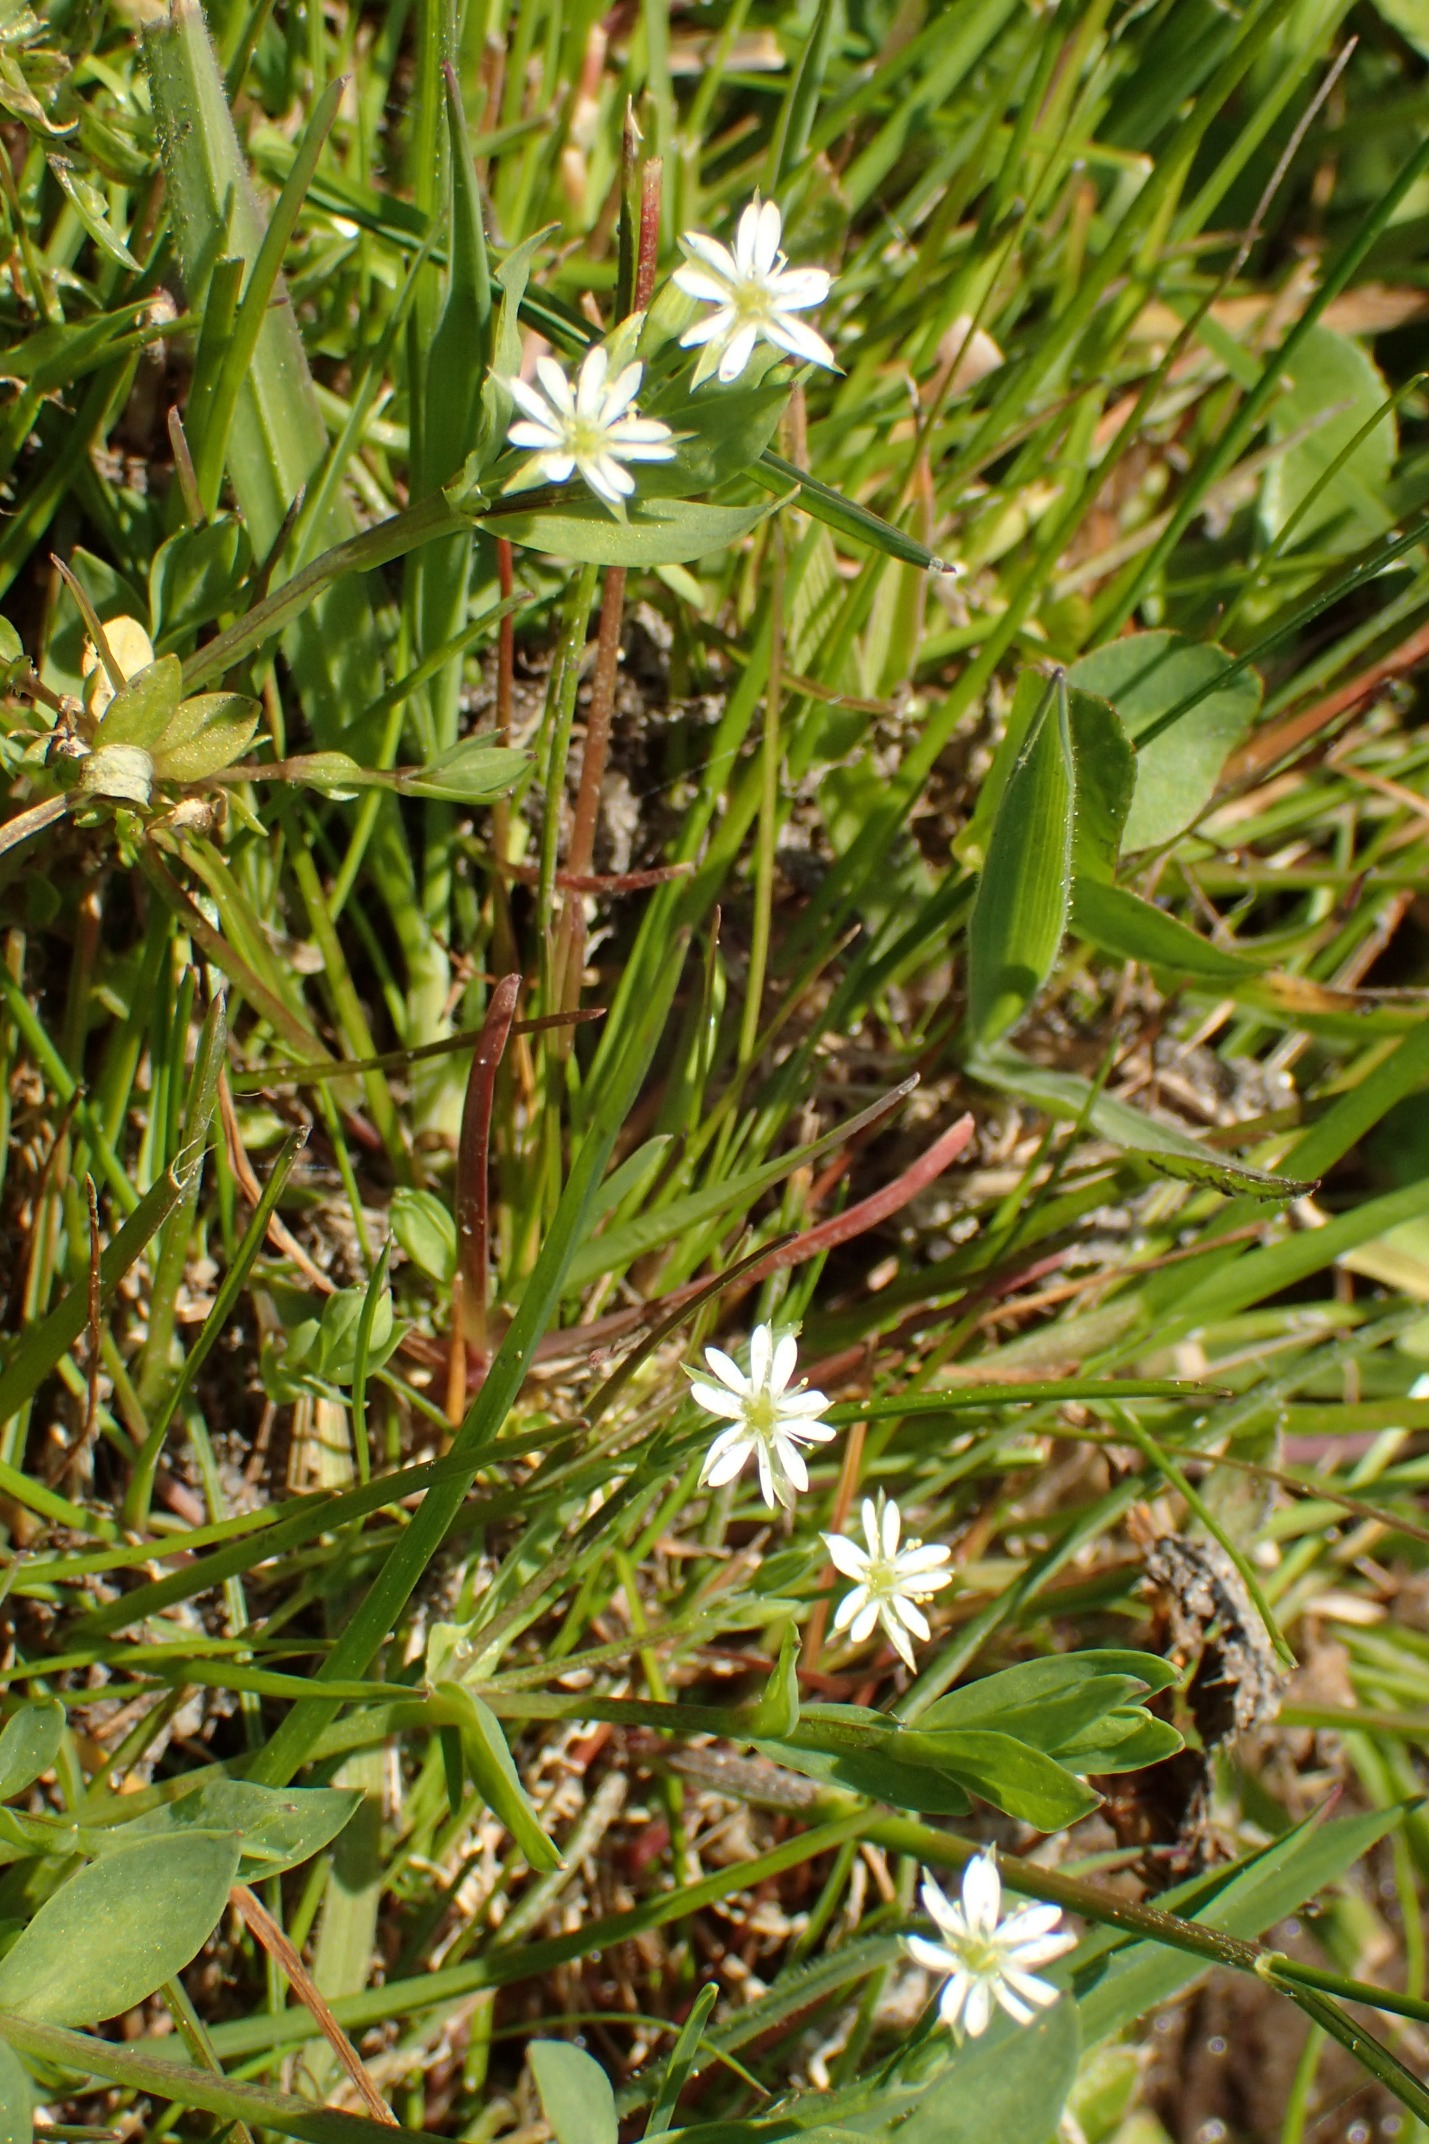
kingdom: Plantae
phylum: Tracheophyta
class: Magnoliopsida
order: Caryophyllales
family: Caryophyllaceae
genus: Stellaria
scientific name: Stellaria alsine
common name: Sump-fladstjerne
